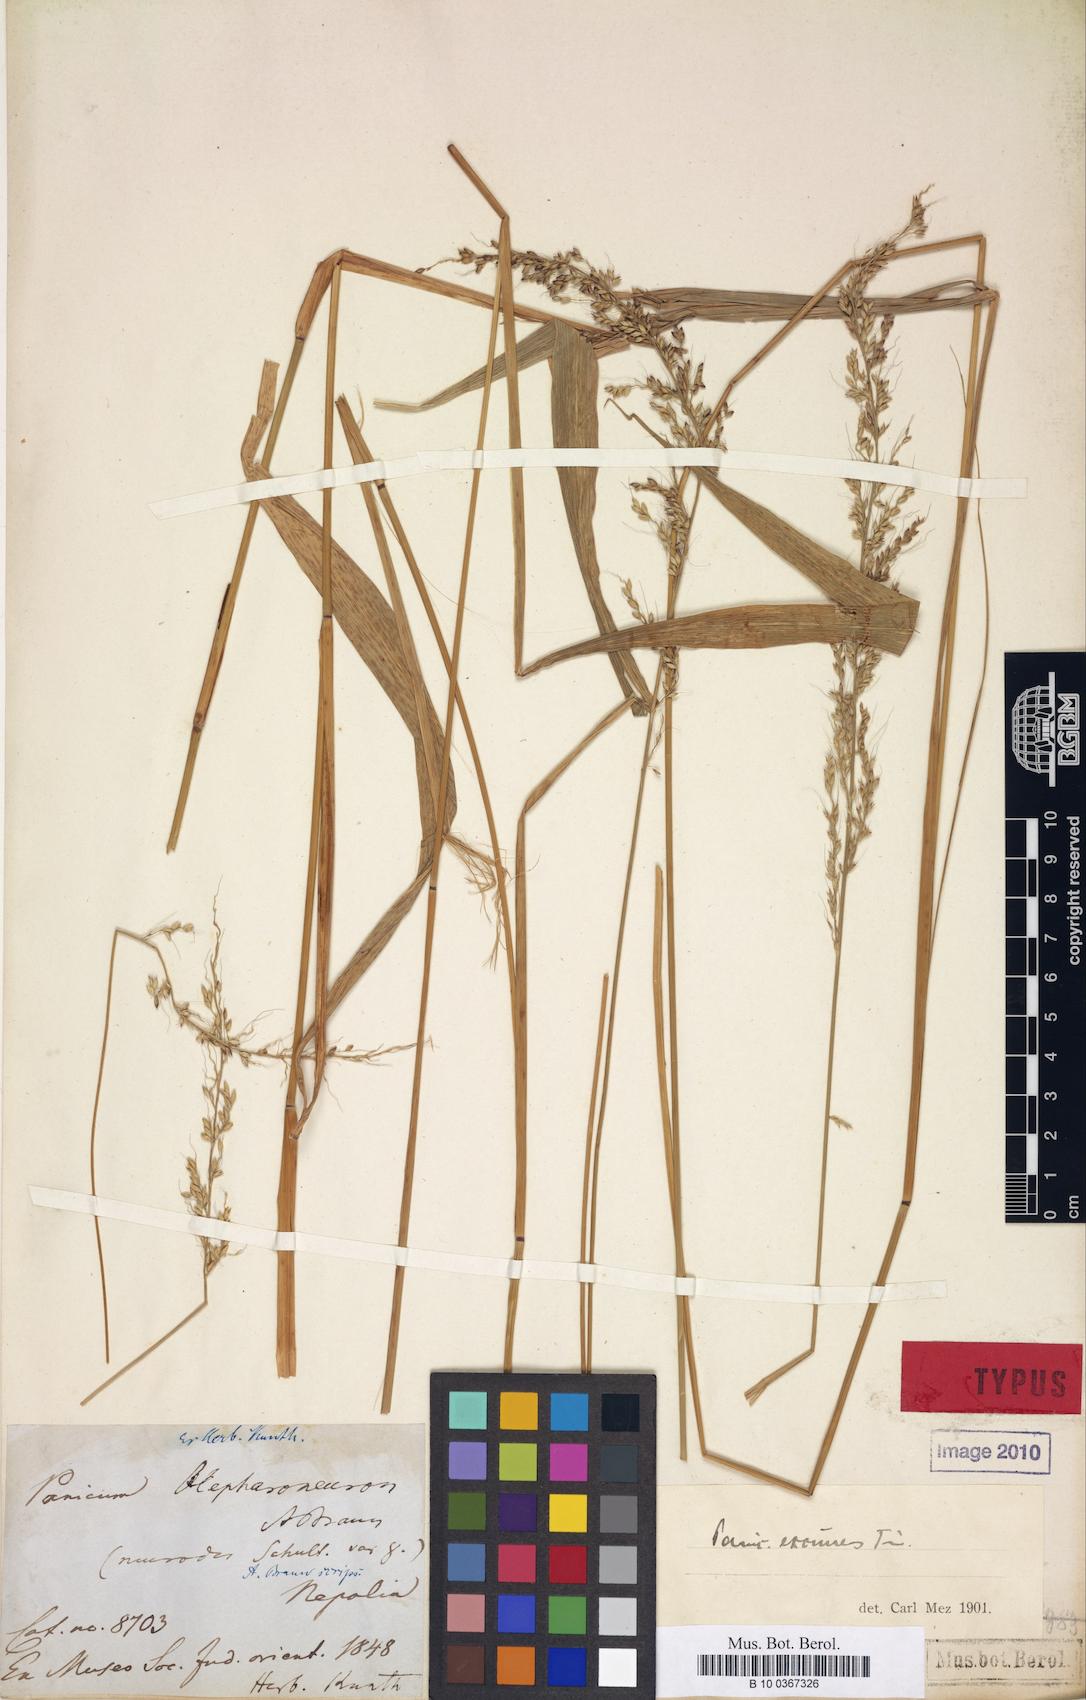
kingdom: Plantae
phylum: Tracheophyta
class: Liliopsida
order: Poales
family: Poaceae
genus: Setaria
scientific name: Setaria plicata
